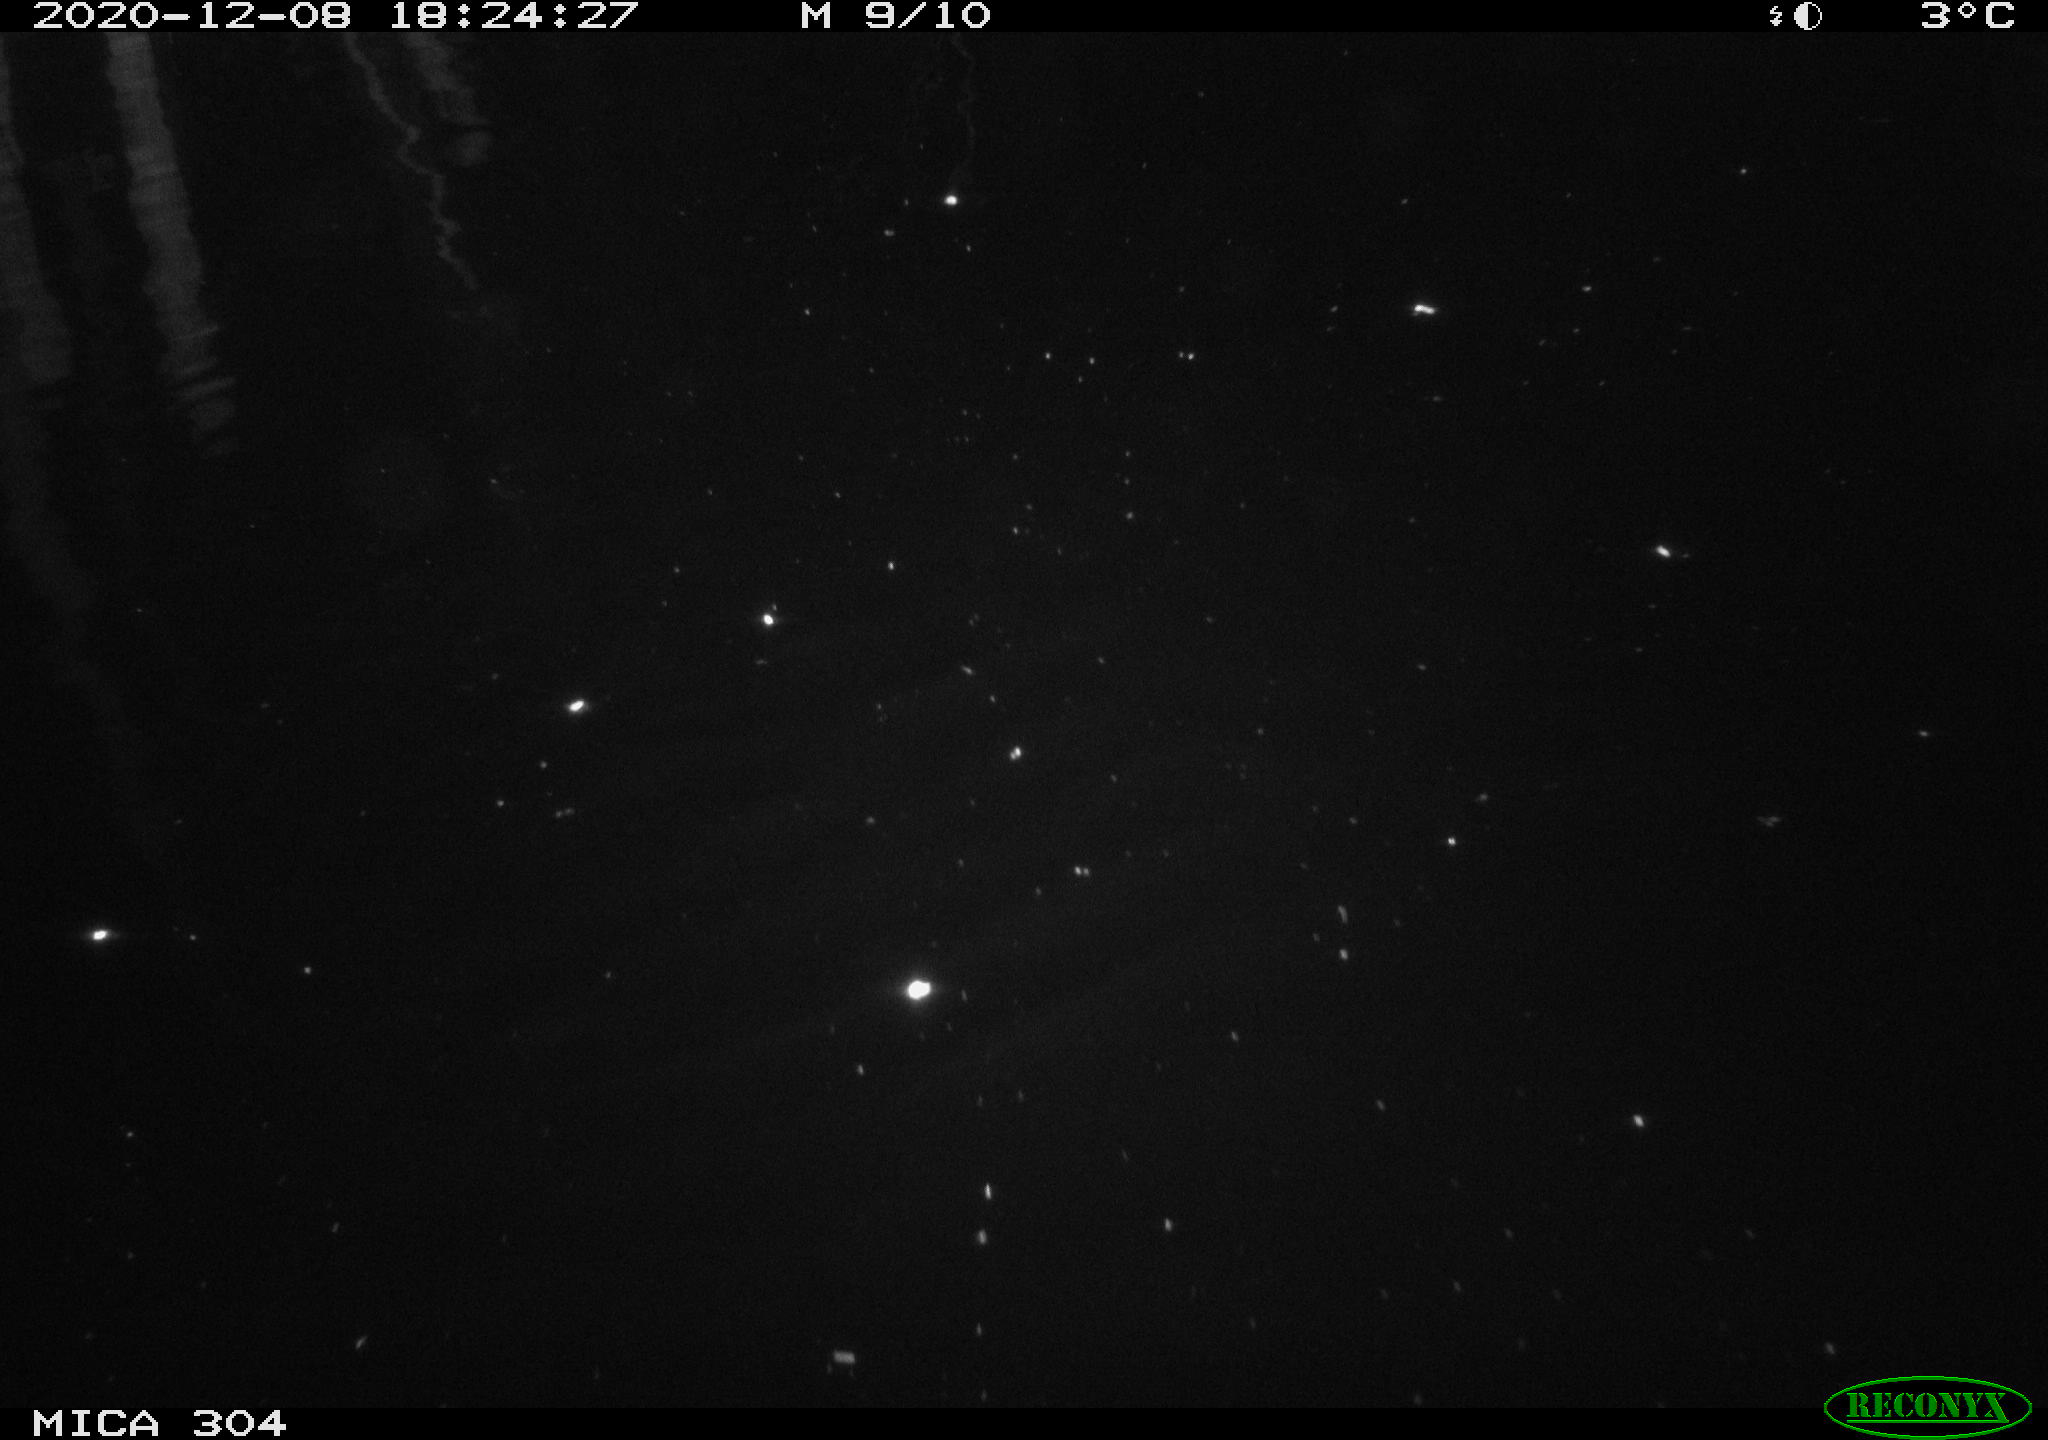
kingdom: Animalia
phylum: Chordata
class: Mammalia
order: Rodentia
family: Muridae
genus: Rattus
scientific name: Rattus norvegicus
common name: Brown rat
